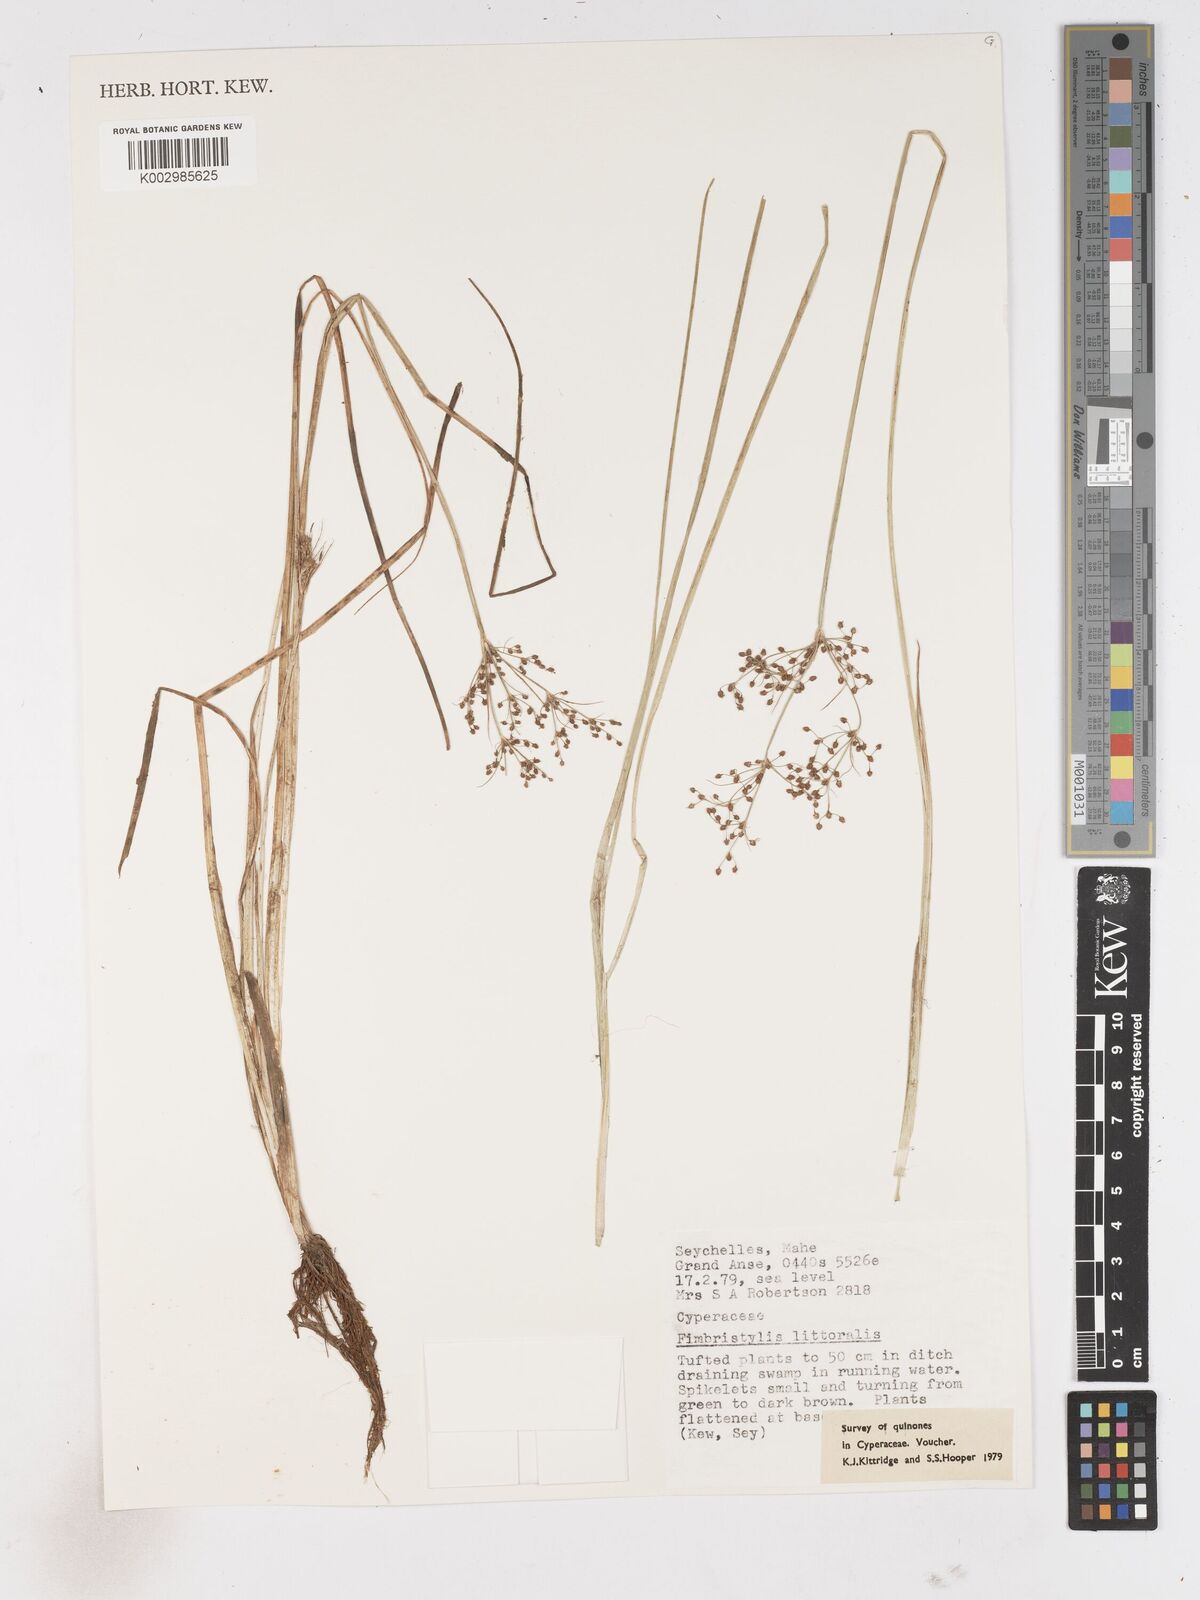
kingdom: Plantae
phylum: Tracheophyta
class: Liliopsida
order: Poales
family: Cyperaceae
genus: Fimbristylis
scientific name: Fimbristylis littoralis
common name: Fimbry
